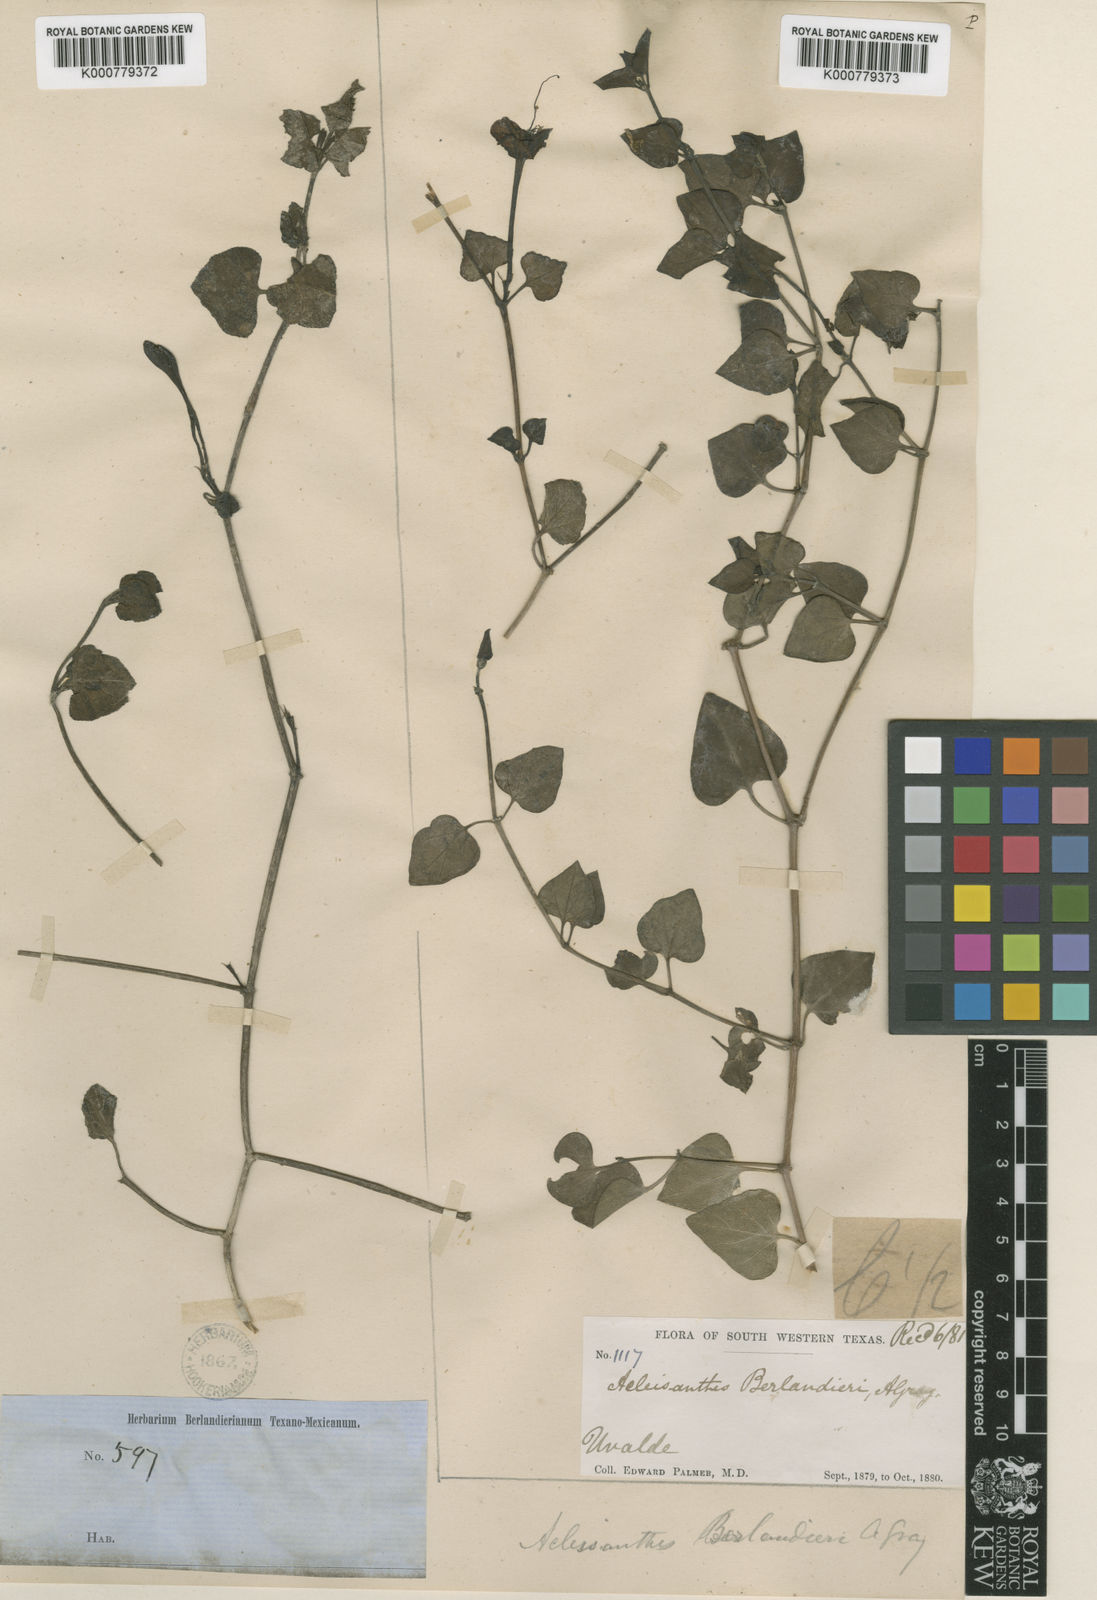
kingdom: Plantae
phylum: Tracheophyta
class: Magnoliopsida
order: Caryophyllales
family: Nyctaginaceae
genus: Acleisanthes
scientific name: Acleisanthes obtusa
